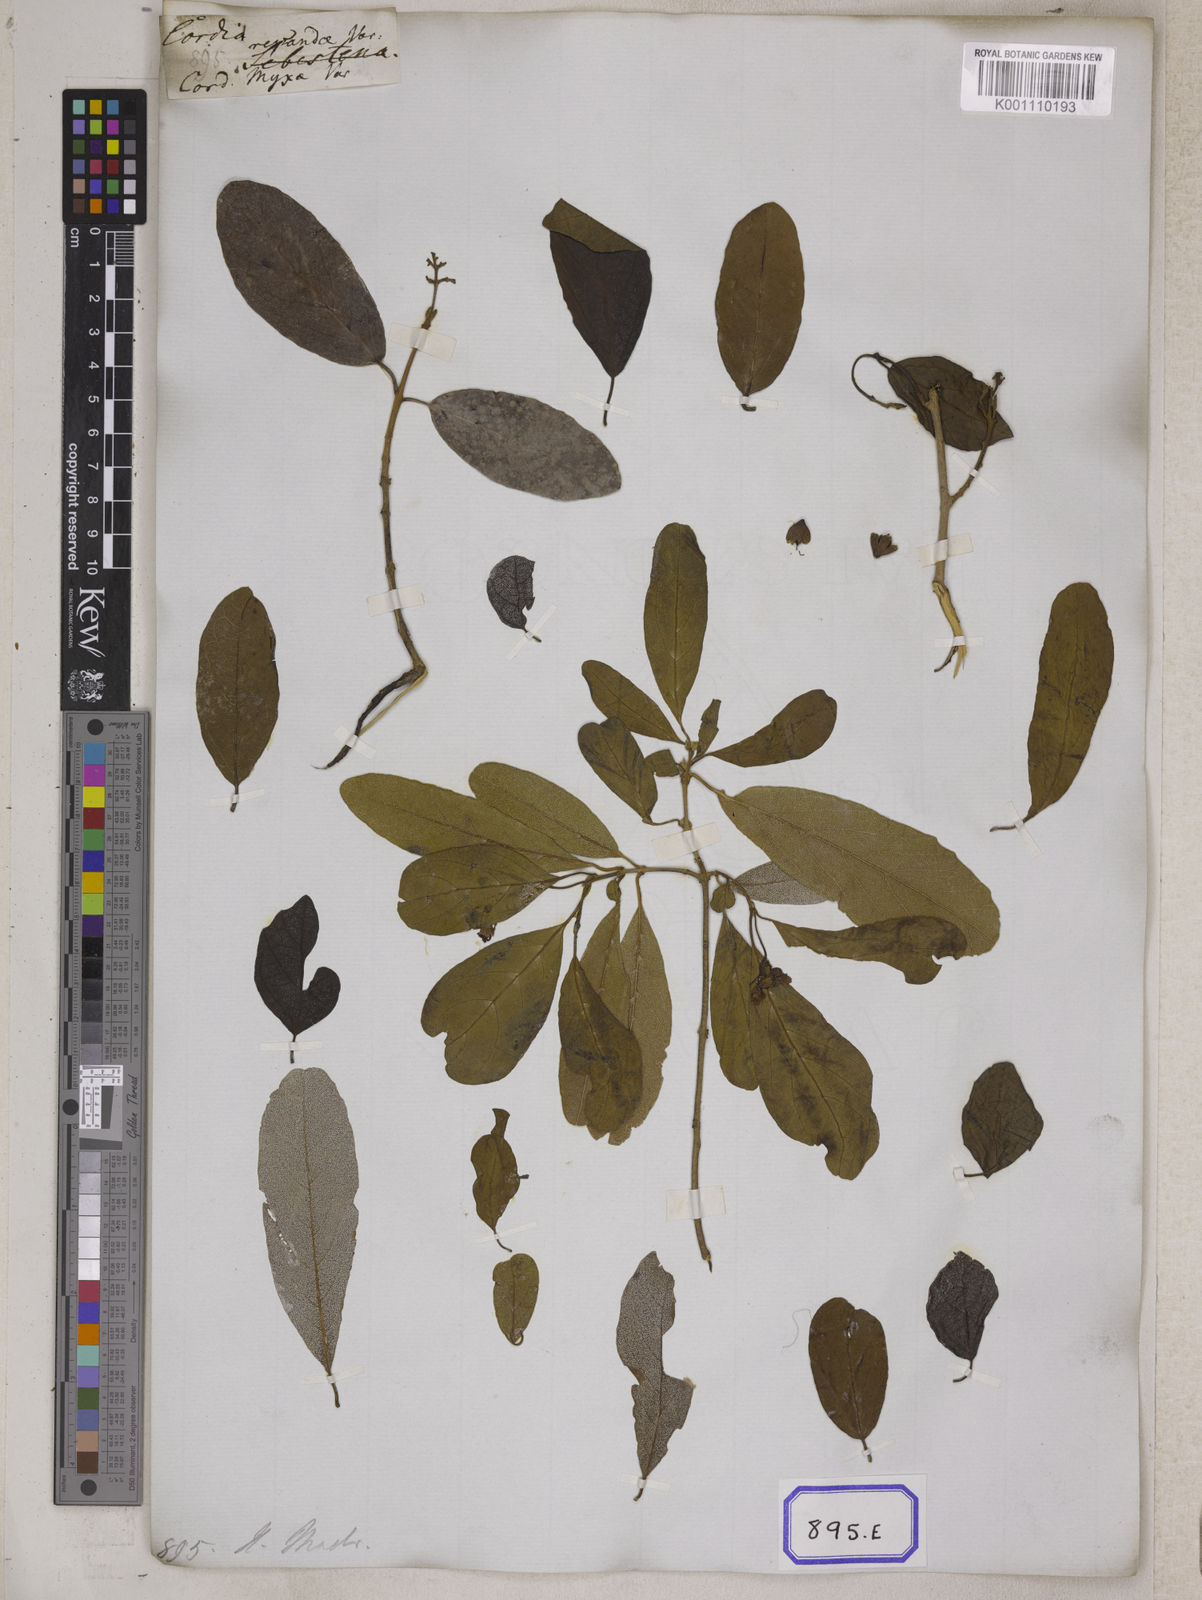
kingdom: Plantae
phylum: Tracheophyta
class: Magnoliopsida
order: Boraginales
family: Cordiaceae
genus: Cordia
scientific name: Cordia sinensis
